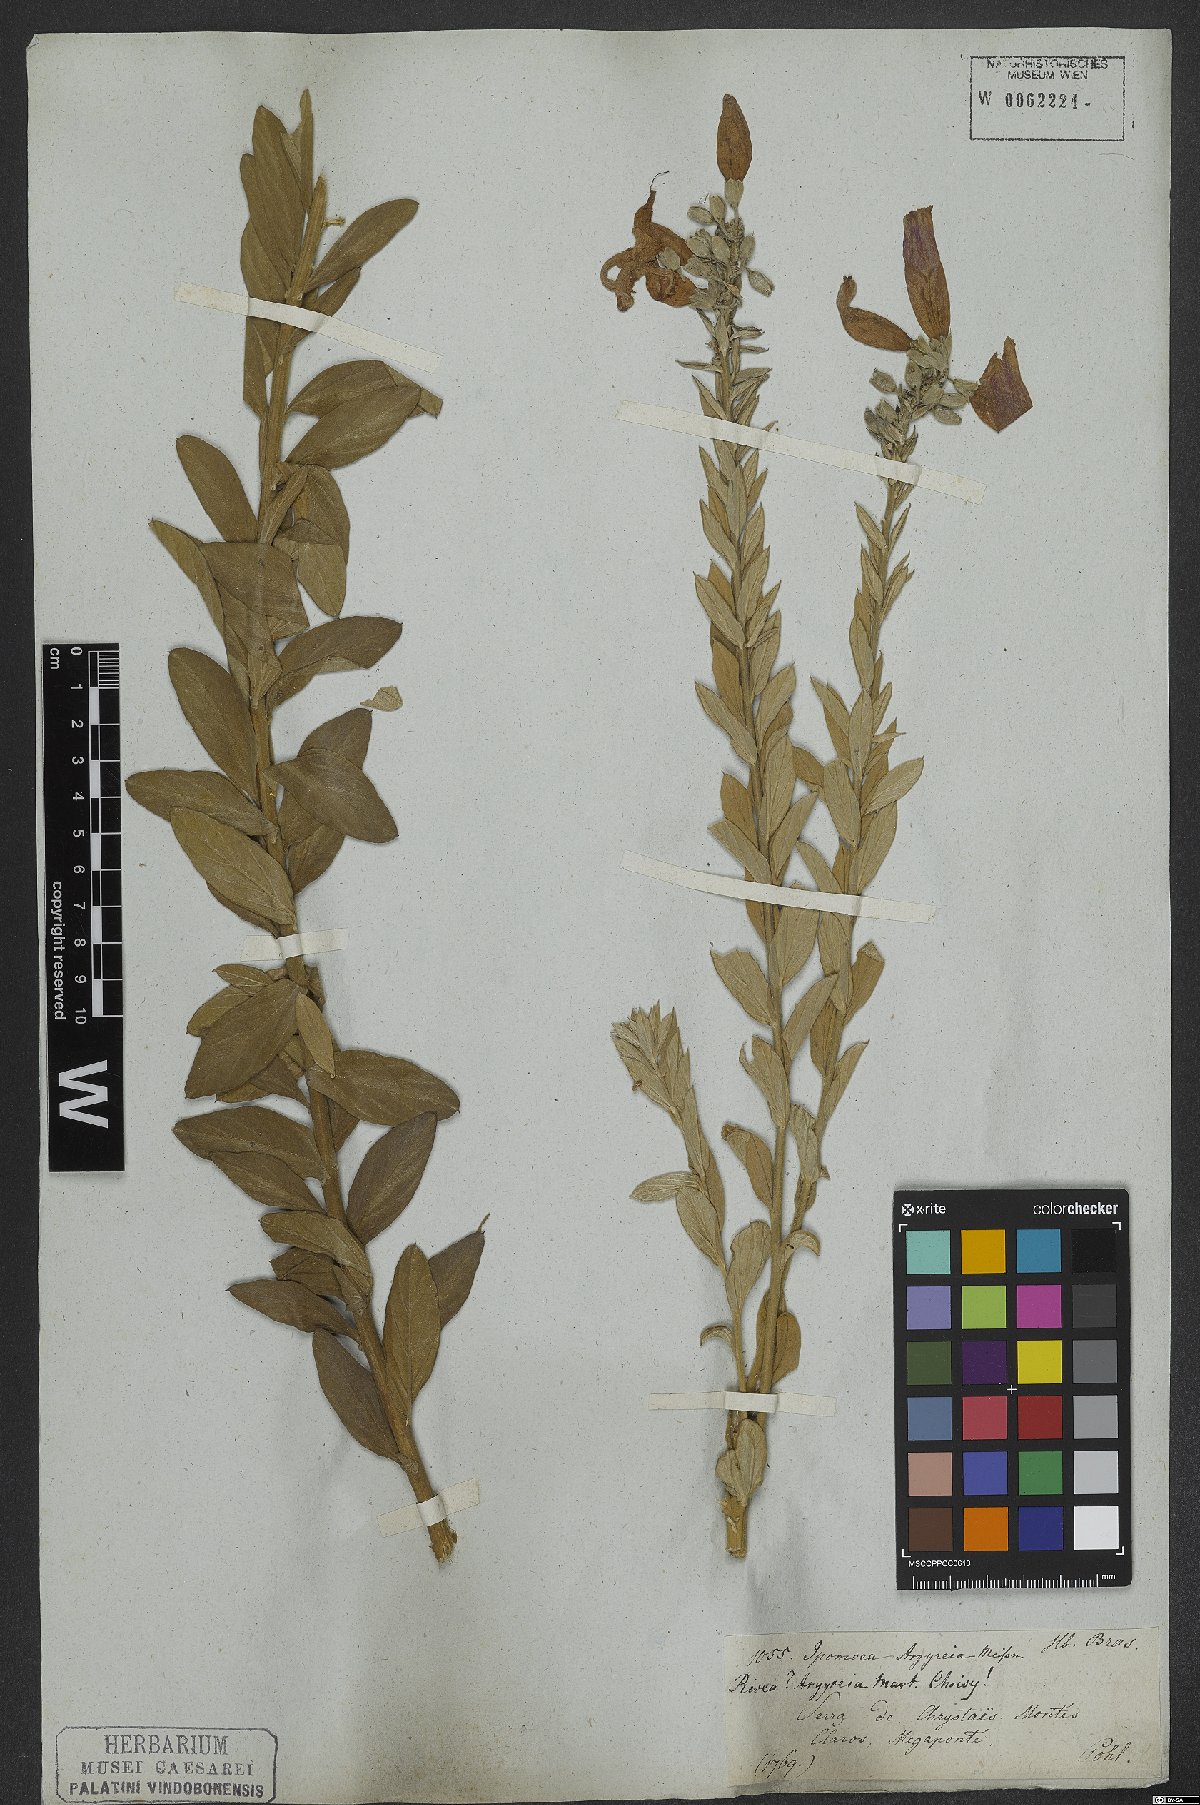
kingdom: Plantae
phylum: Tracheophyta
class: Magnoliopsida
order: Solanales
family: Convolvulaceae
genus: Ipomoea
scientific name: Ipomoea argyreia
